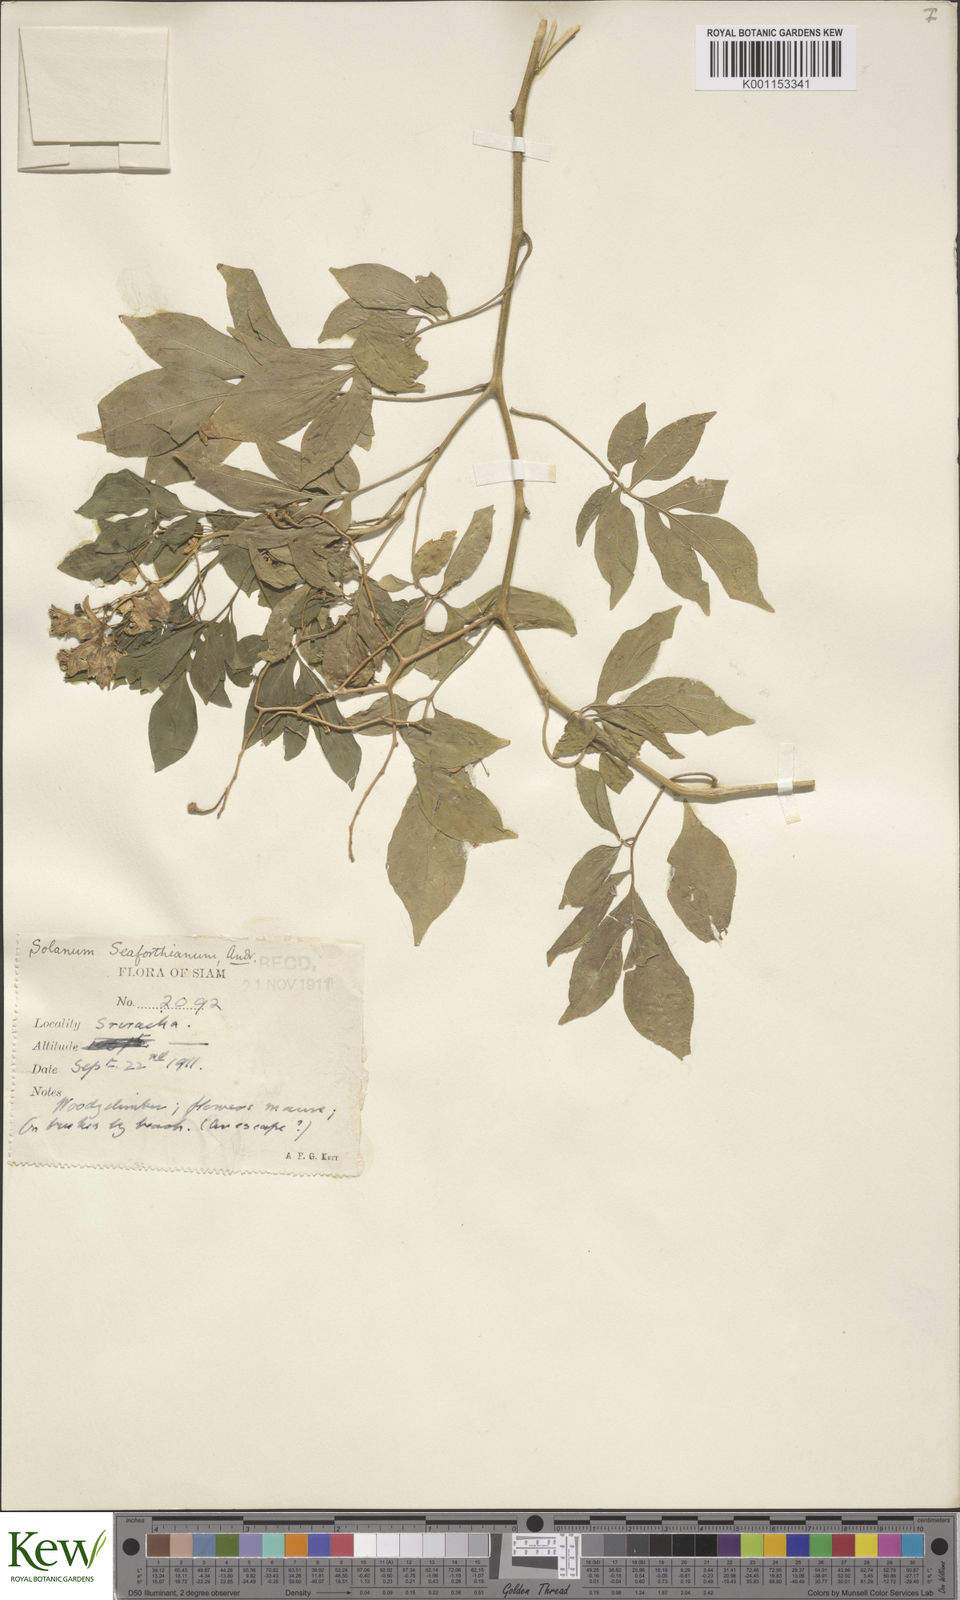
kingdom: Plantae
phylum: Tracheophyta
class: Magnoliopsida
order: Solanales
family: Solanaceae
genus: Solanum
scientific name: Solanum seaforthianum
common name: Brazilian nightshade
